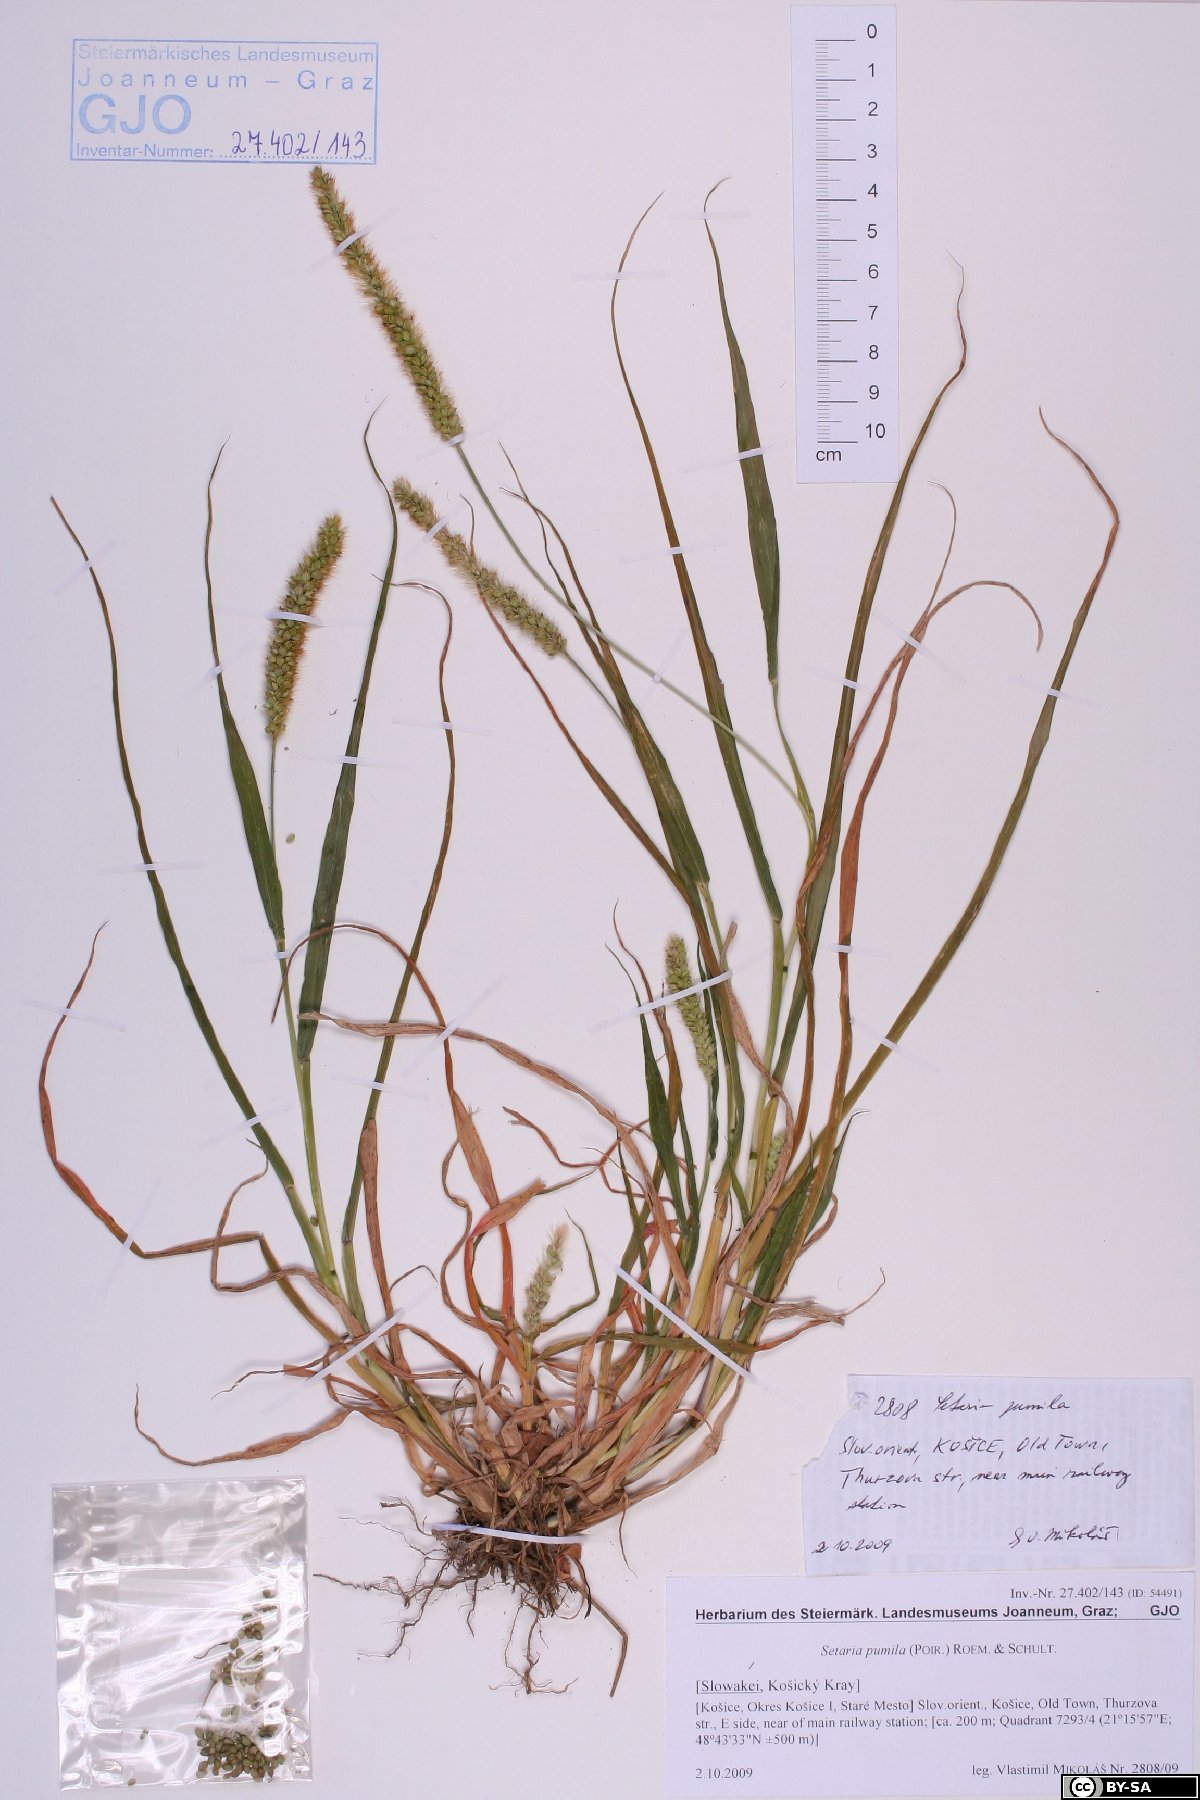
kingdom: Plantae
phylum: Tracheophyta
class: Liliopsida
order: Poales
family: Poaceae
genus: Setaria
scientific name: Setaria pumila
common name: Yellow bristle-grass
